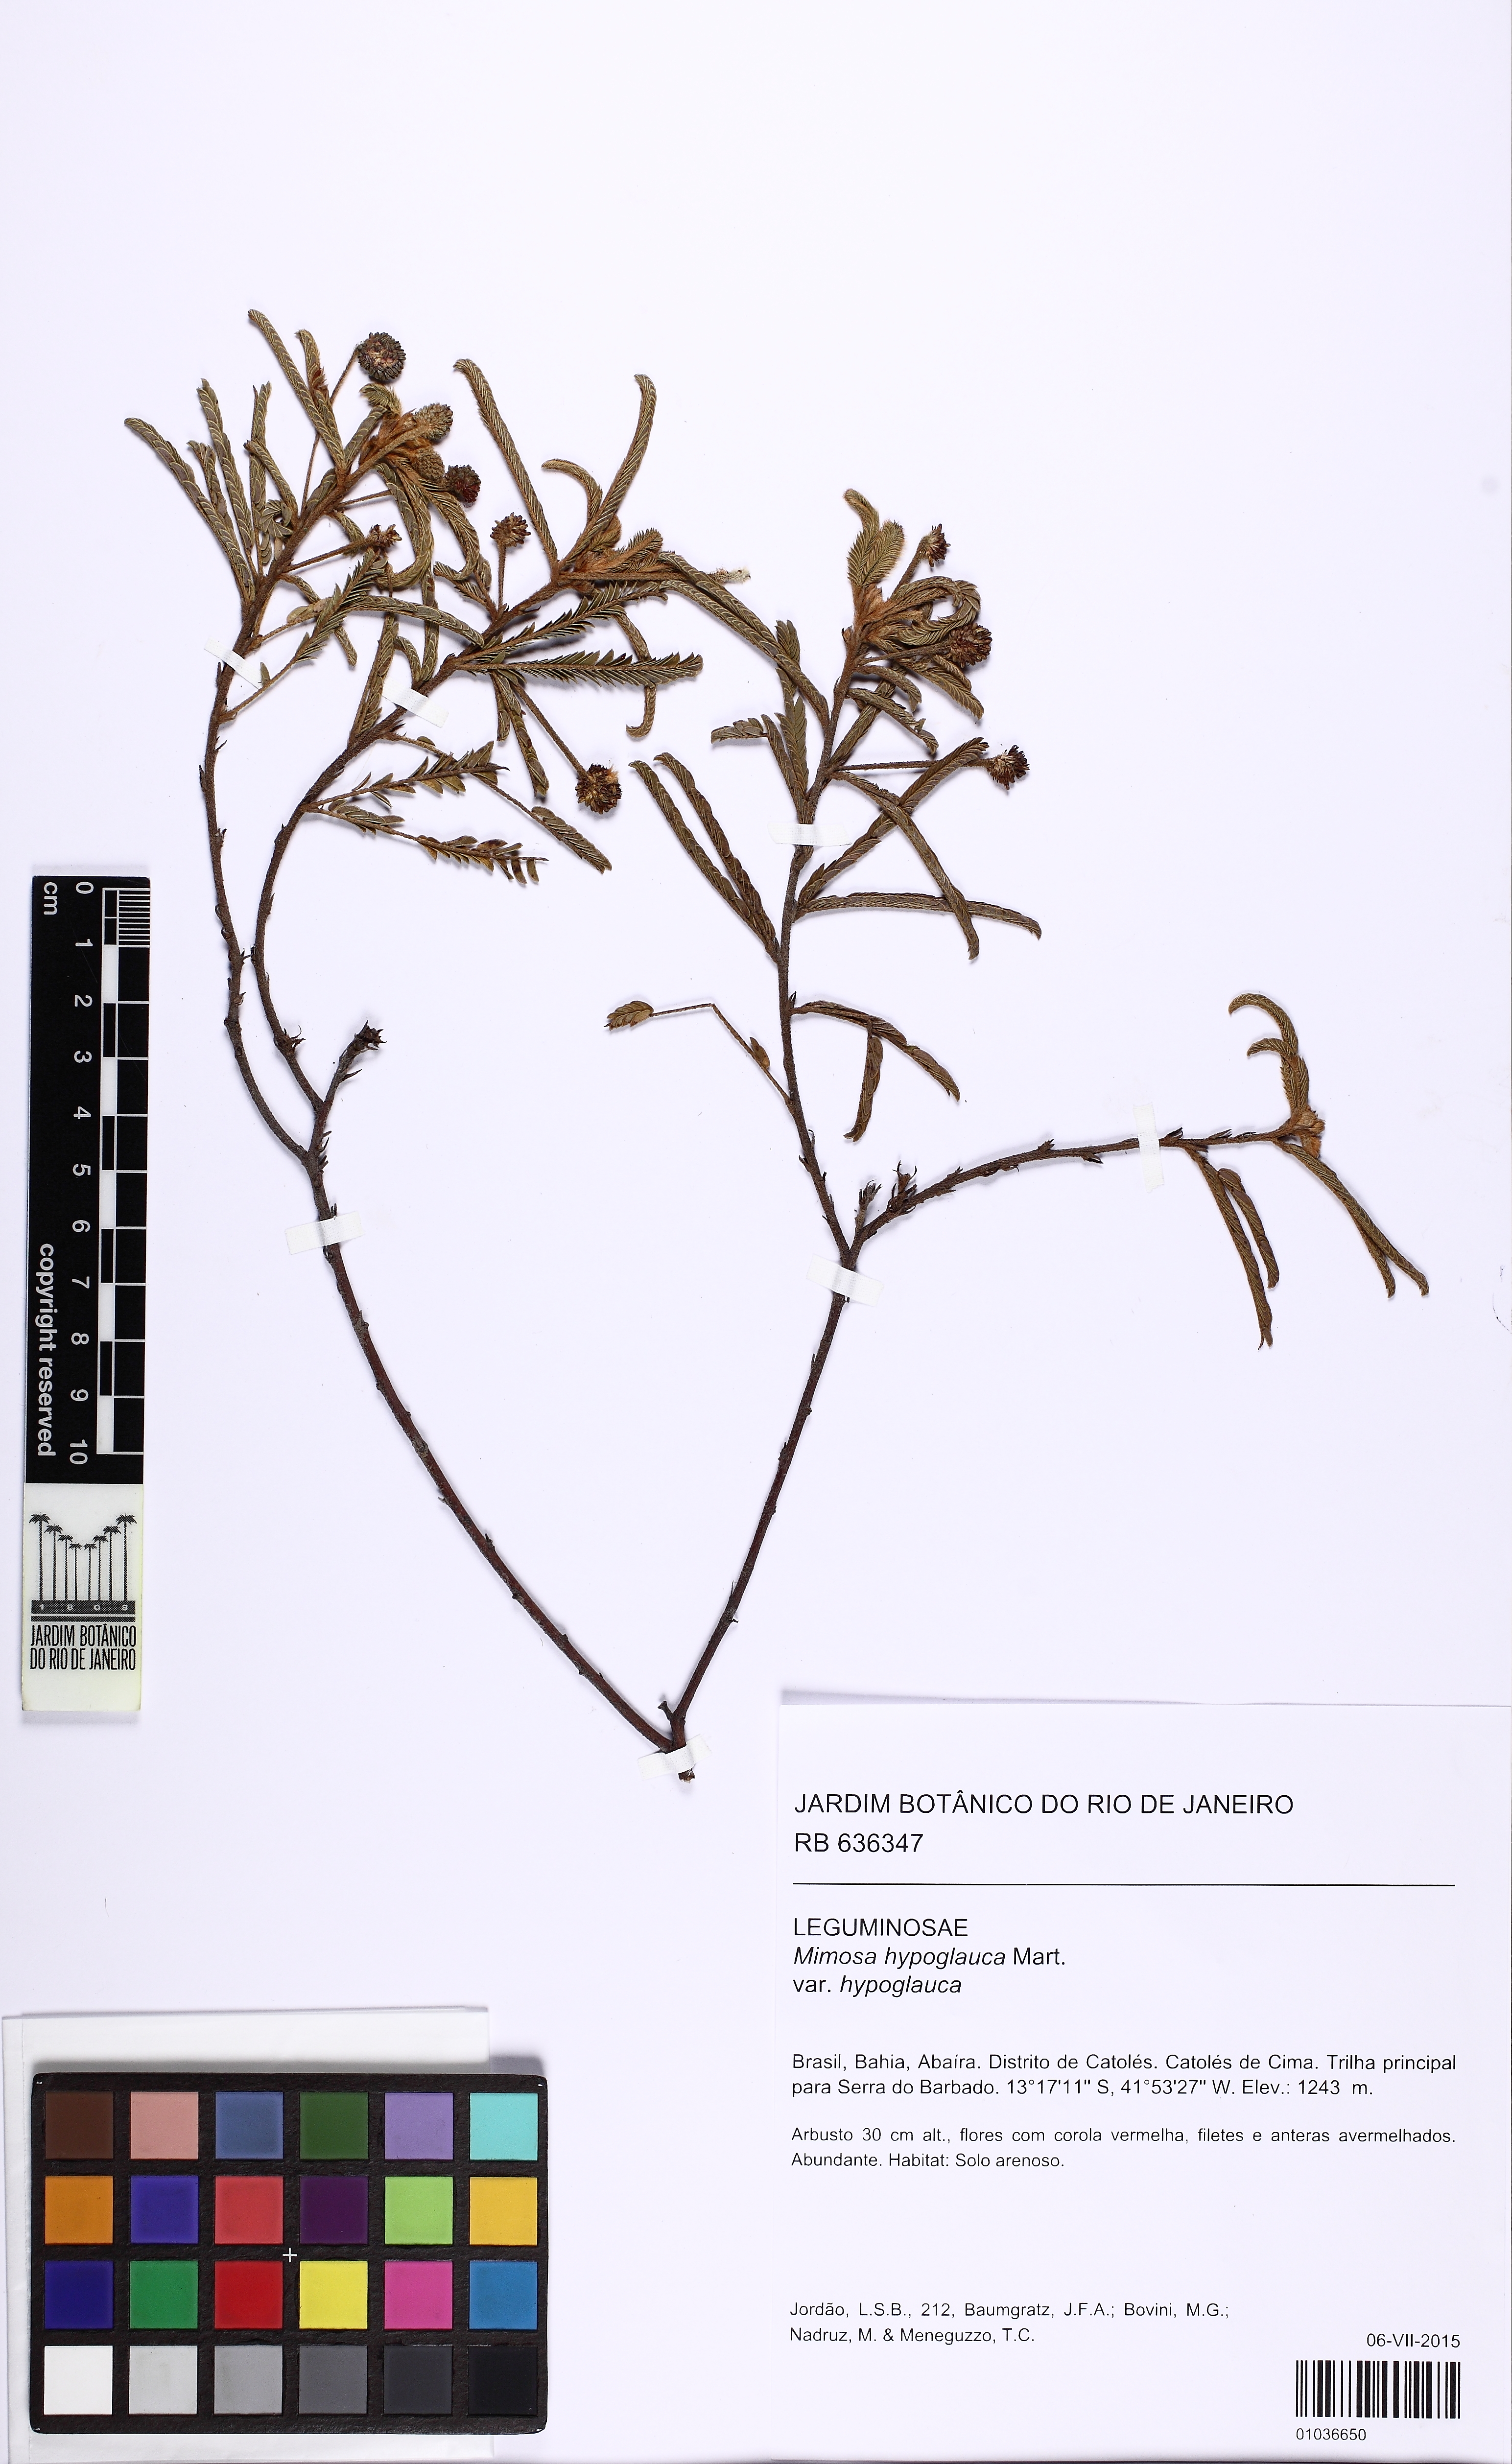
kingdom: Plantae
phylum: Tracheophyta
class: Magnoliopsida
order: Fabales
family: Fabaceae
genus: Mimosa
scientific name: Mimosa hypoglauca
